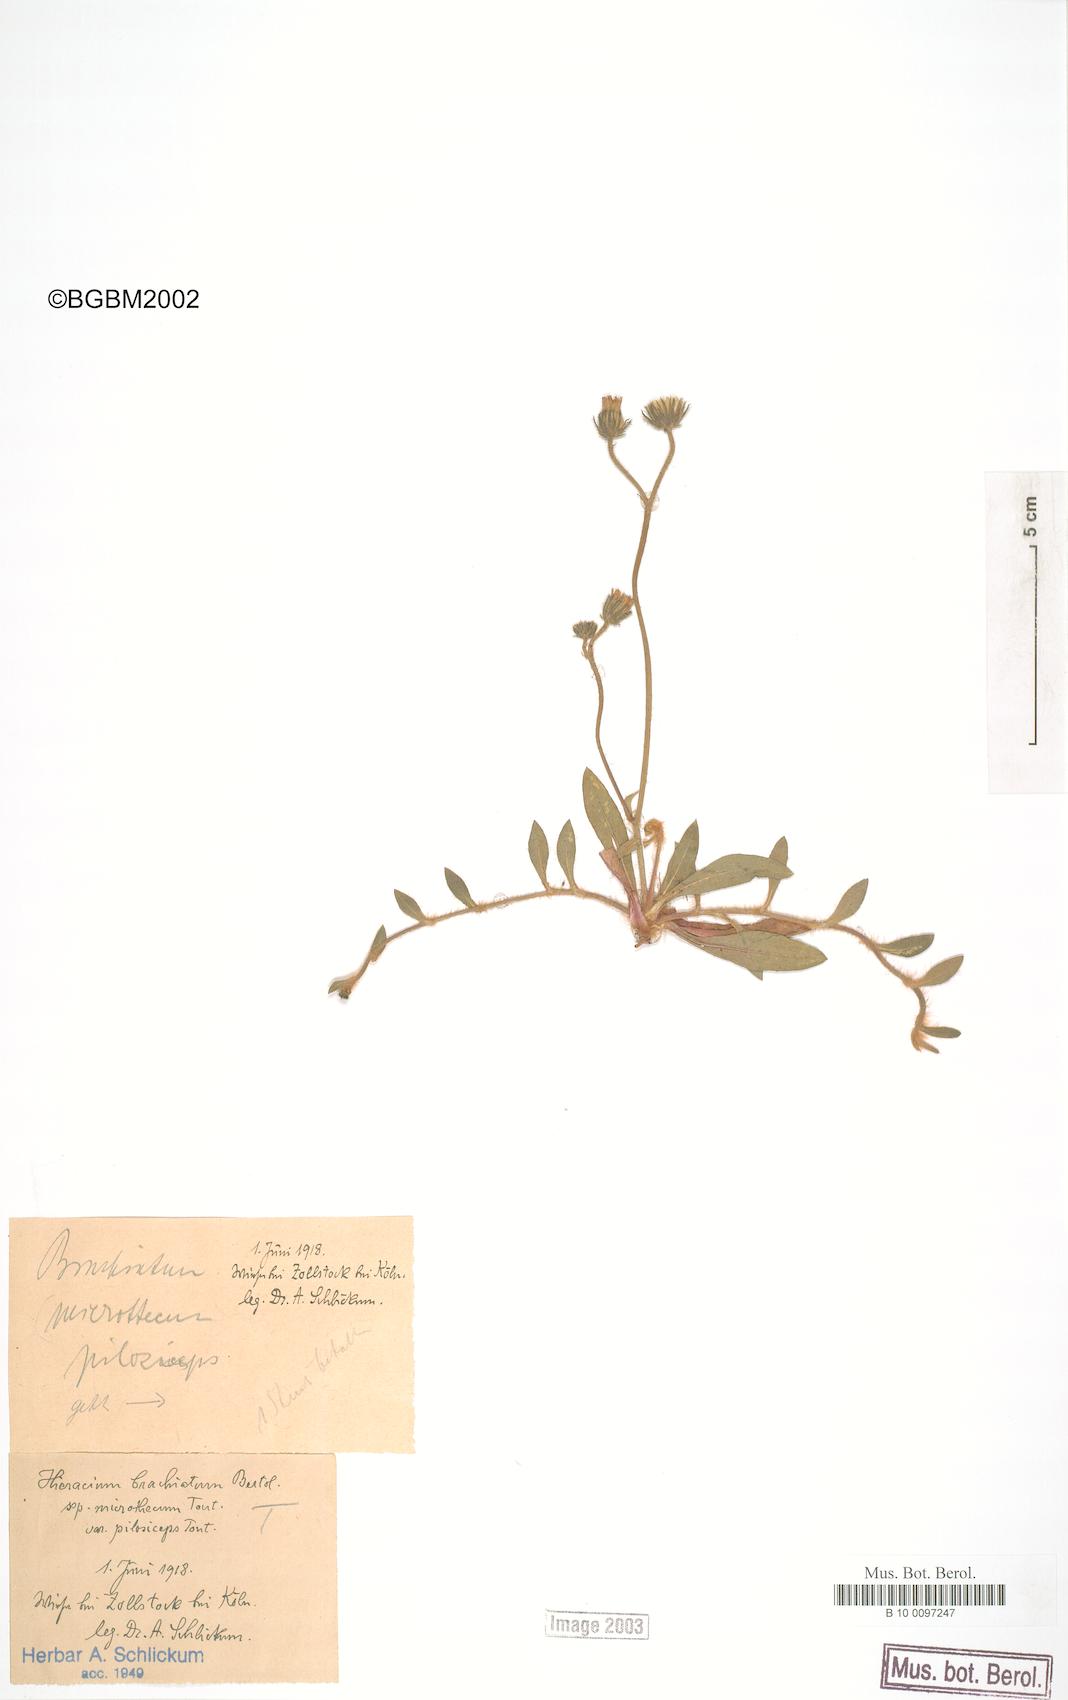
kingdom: Plantae
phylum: Tracheophyta
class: Magnoliopsida
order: Asterales
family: Asteraceae
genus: Pilosella
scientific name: Pilosella acutifolia
